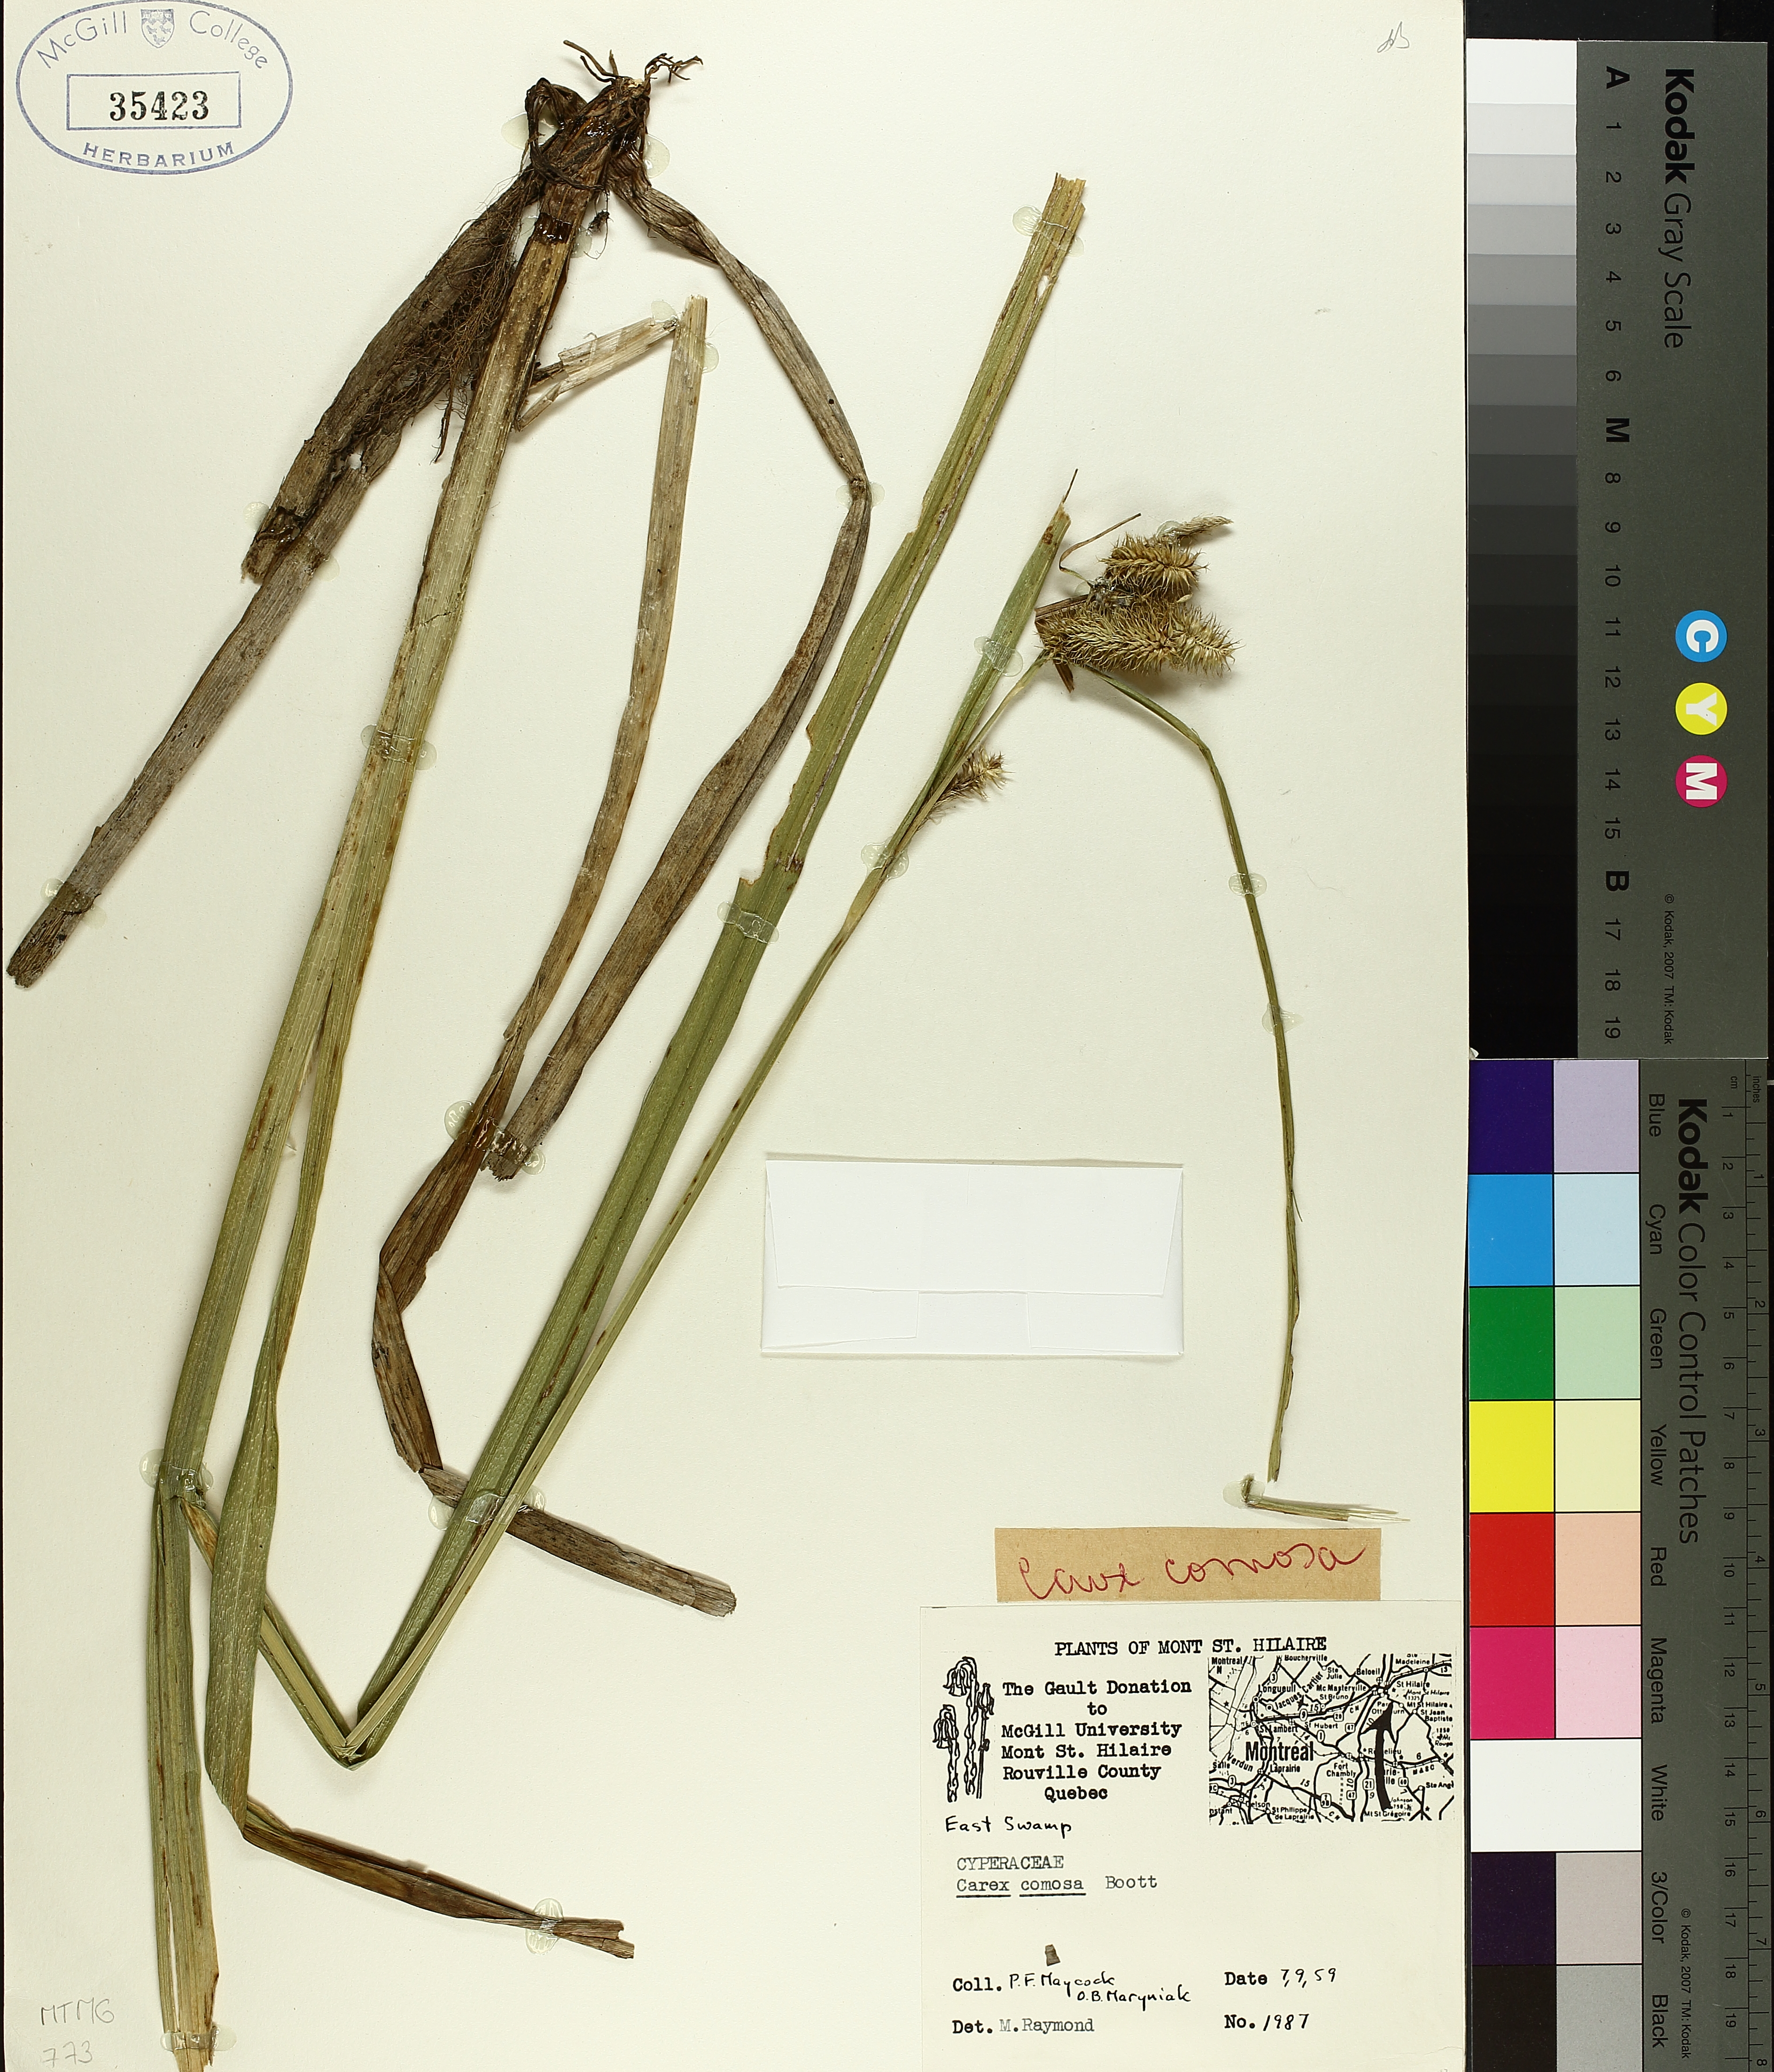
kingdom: Plantae
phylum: Tracheophyta
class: Liliopsida
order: Poales
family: Cyperaceae
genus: Carex
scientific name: Carex comosa
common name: Bristly sedge
